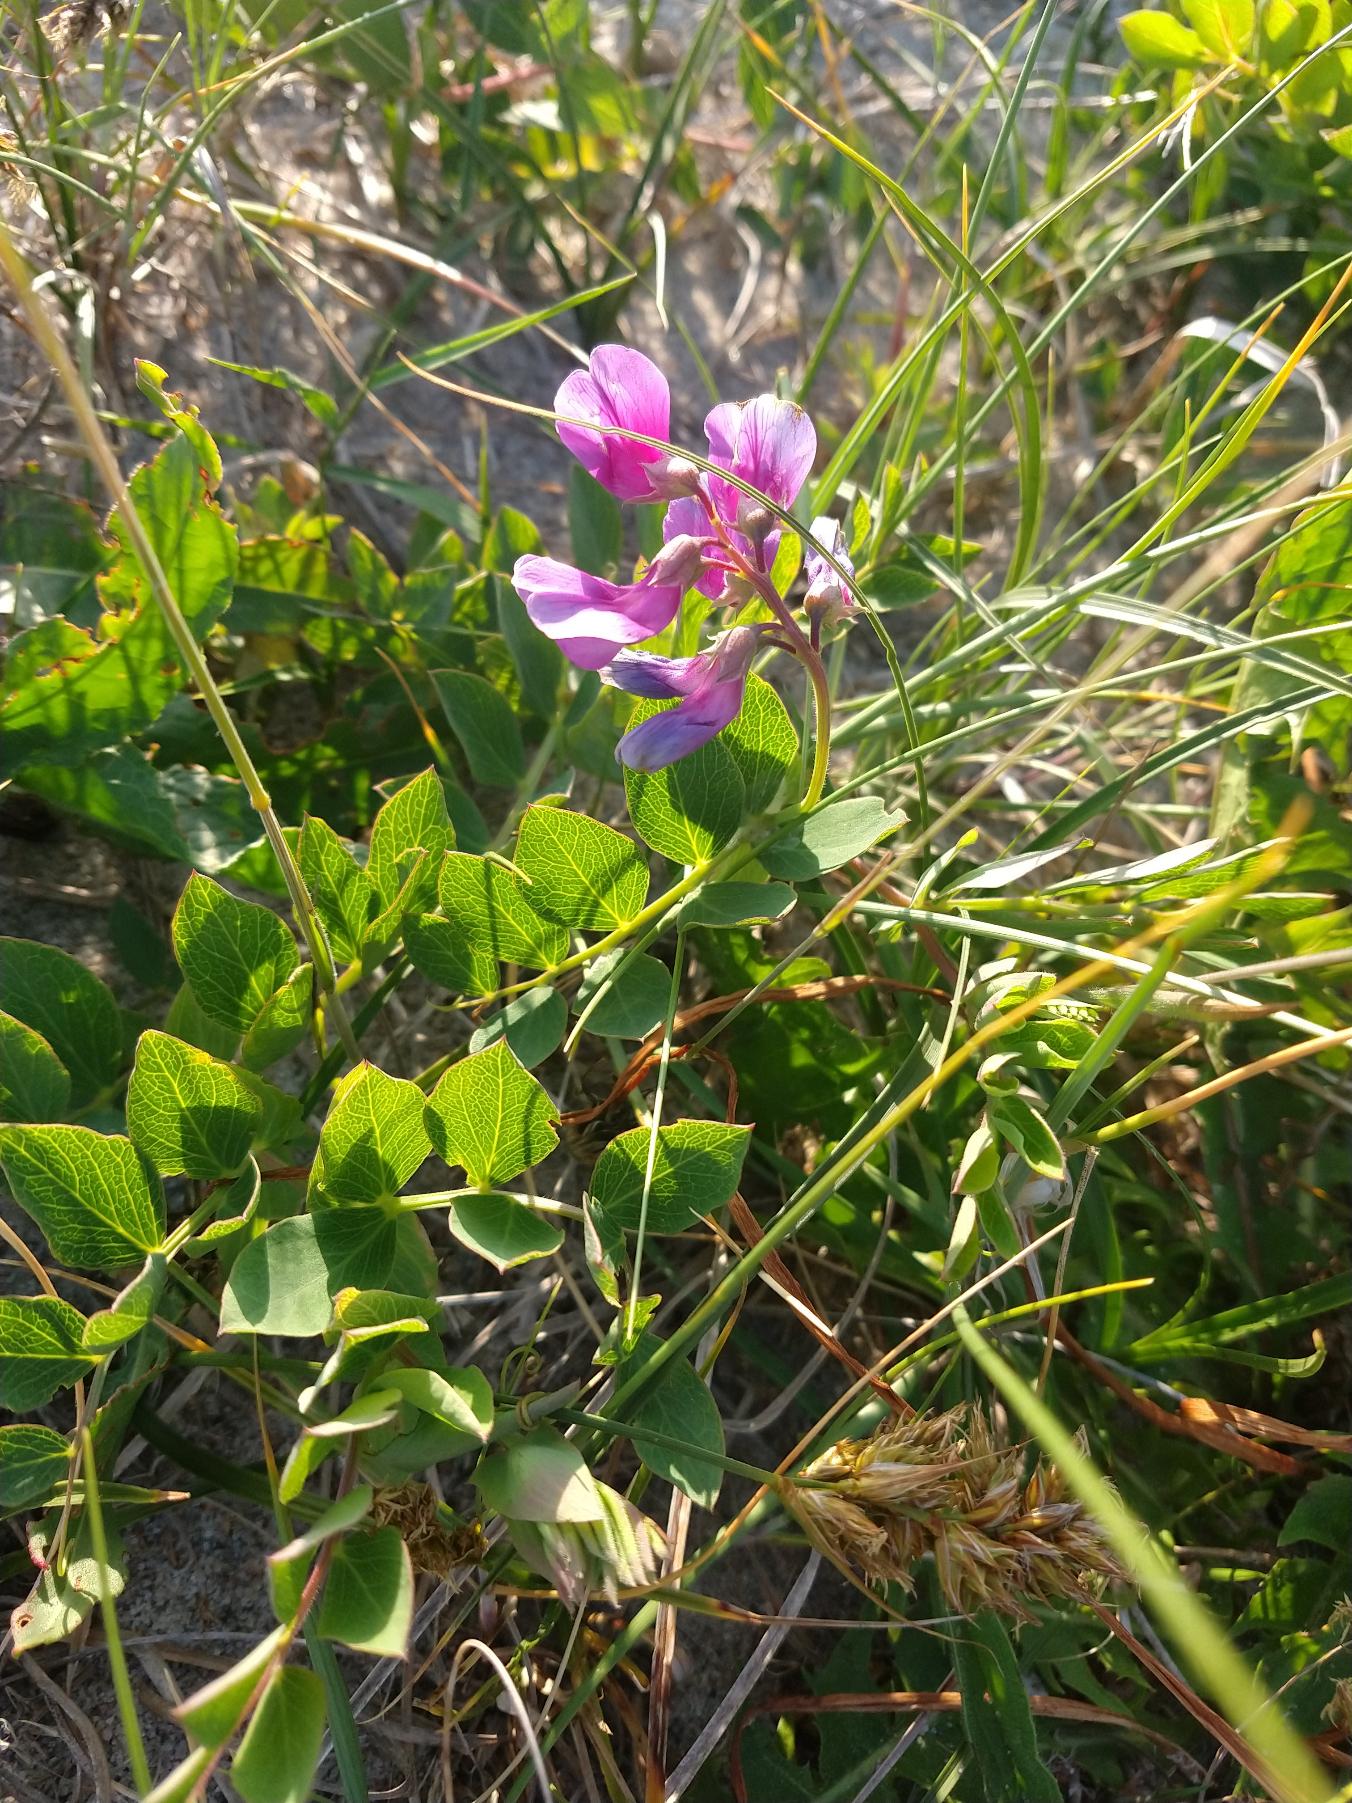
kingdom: Plantae
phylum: Tracheophyta
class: Magnoliopsida
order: Fabales
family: Fabaceae
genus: Lathyrus
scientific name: Lathyrus japonicus
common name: Klit-fladbælg
